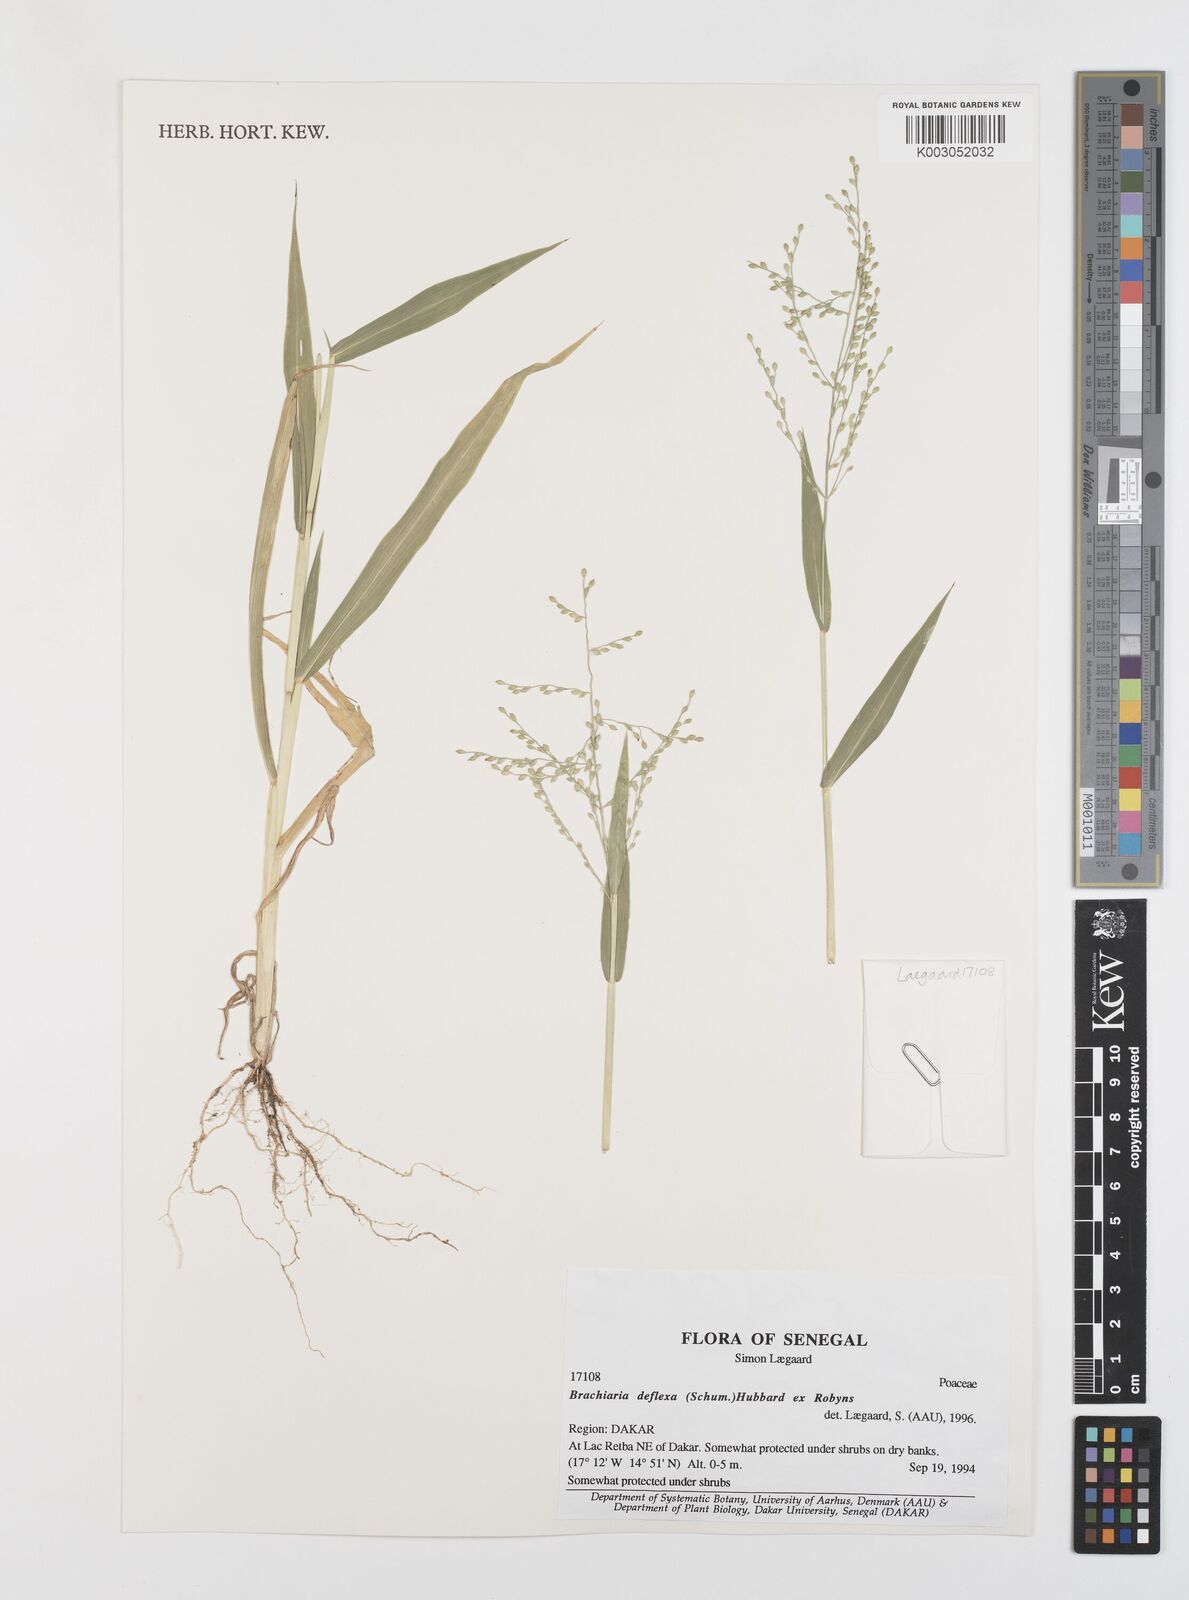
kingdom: Plantae
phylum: Tracheophyta
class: Liliopsida
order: Poales
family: Poaceae
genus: Urochloa
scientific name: Urochloa deflexa
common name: Guinea millet
